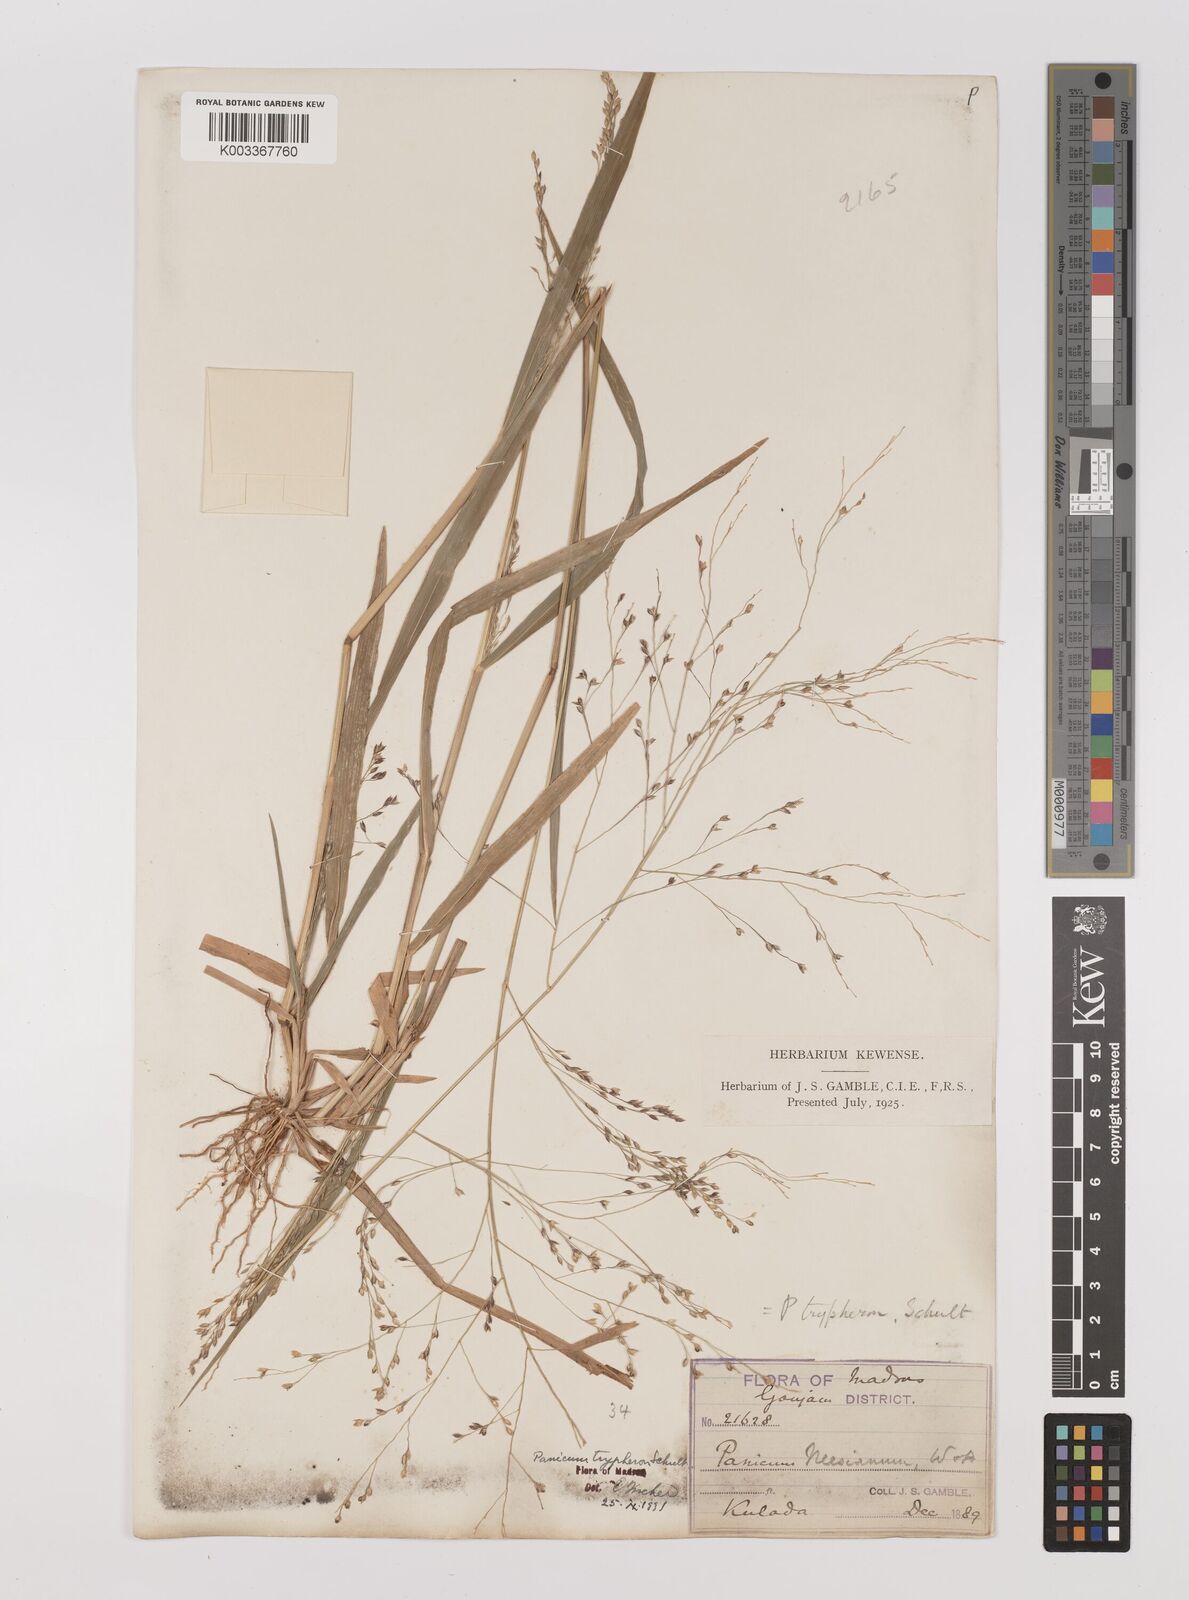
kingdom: Plantae
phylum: Tracheophyta
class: Liliopsida
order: Poales
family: Poaceae
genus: Panicum
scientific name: Panicum curviflorum
